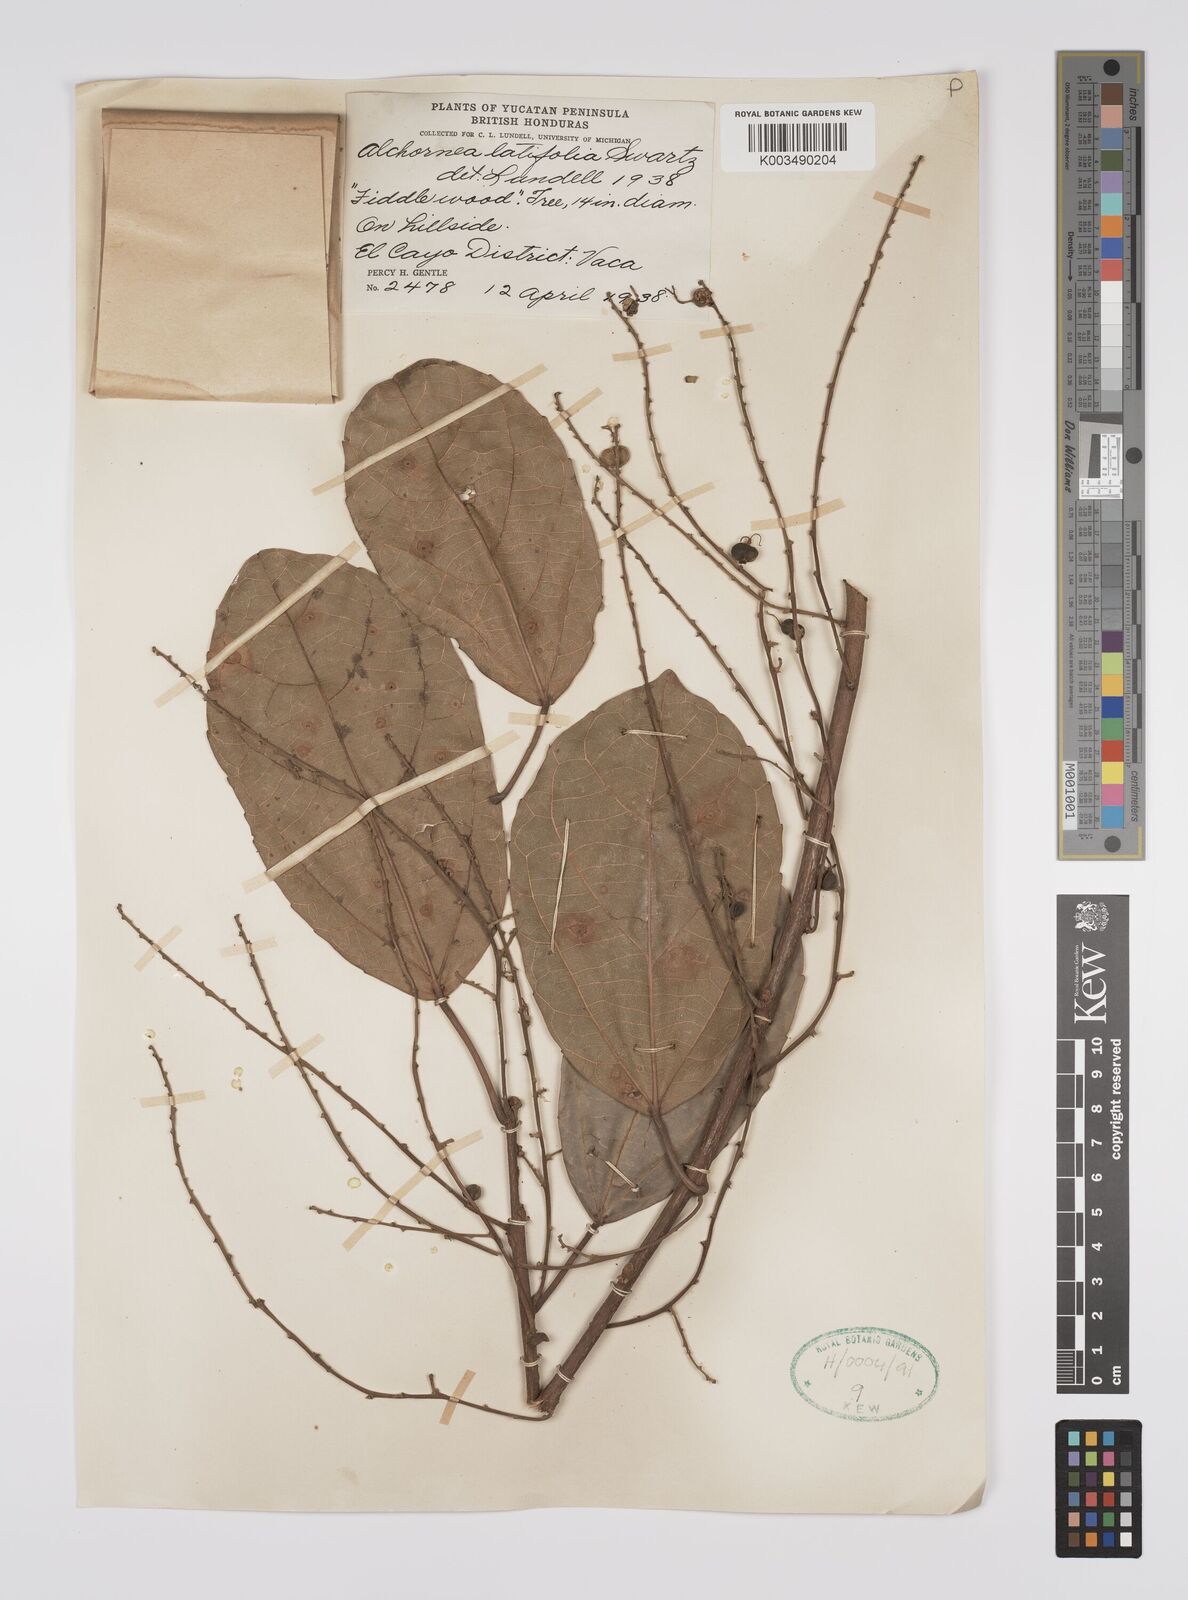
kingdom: Plantae
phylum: Tracheophyta
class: Magnoliopsida
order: Malpighiales
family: Euphorbiaceae
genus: Alchornea
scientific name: Alchornea latifolia
